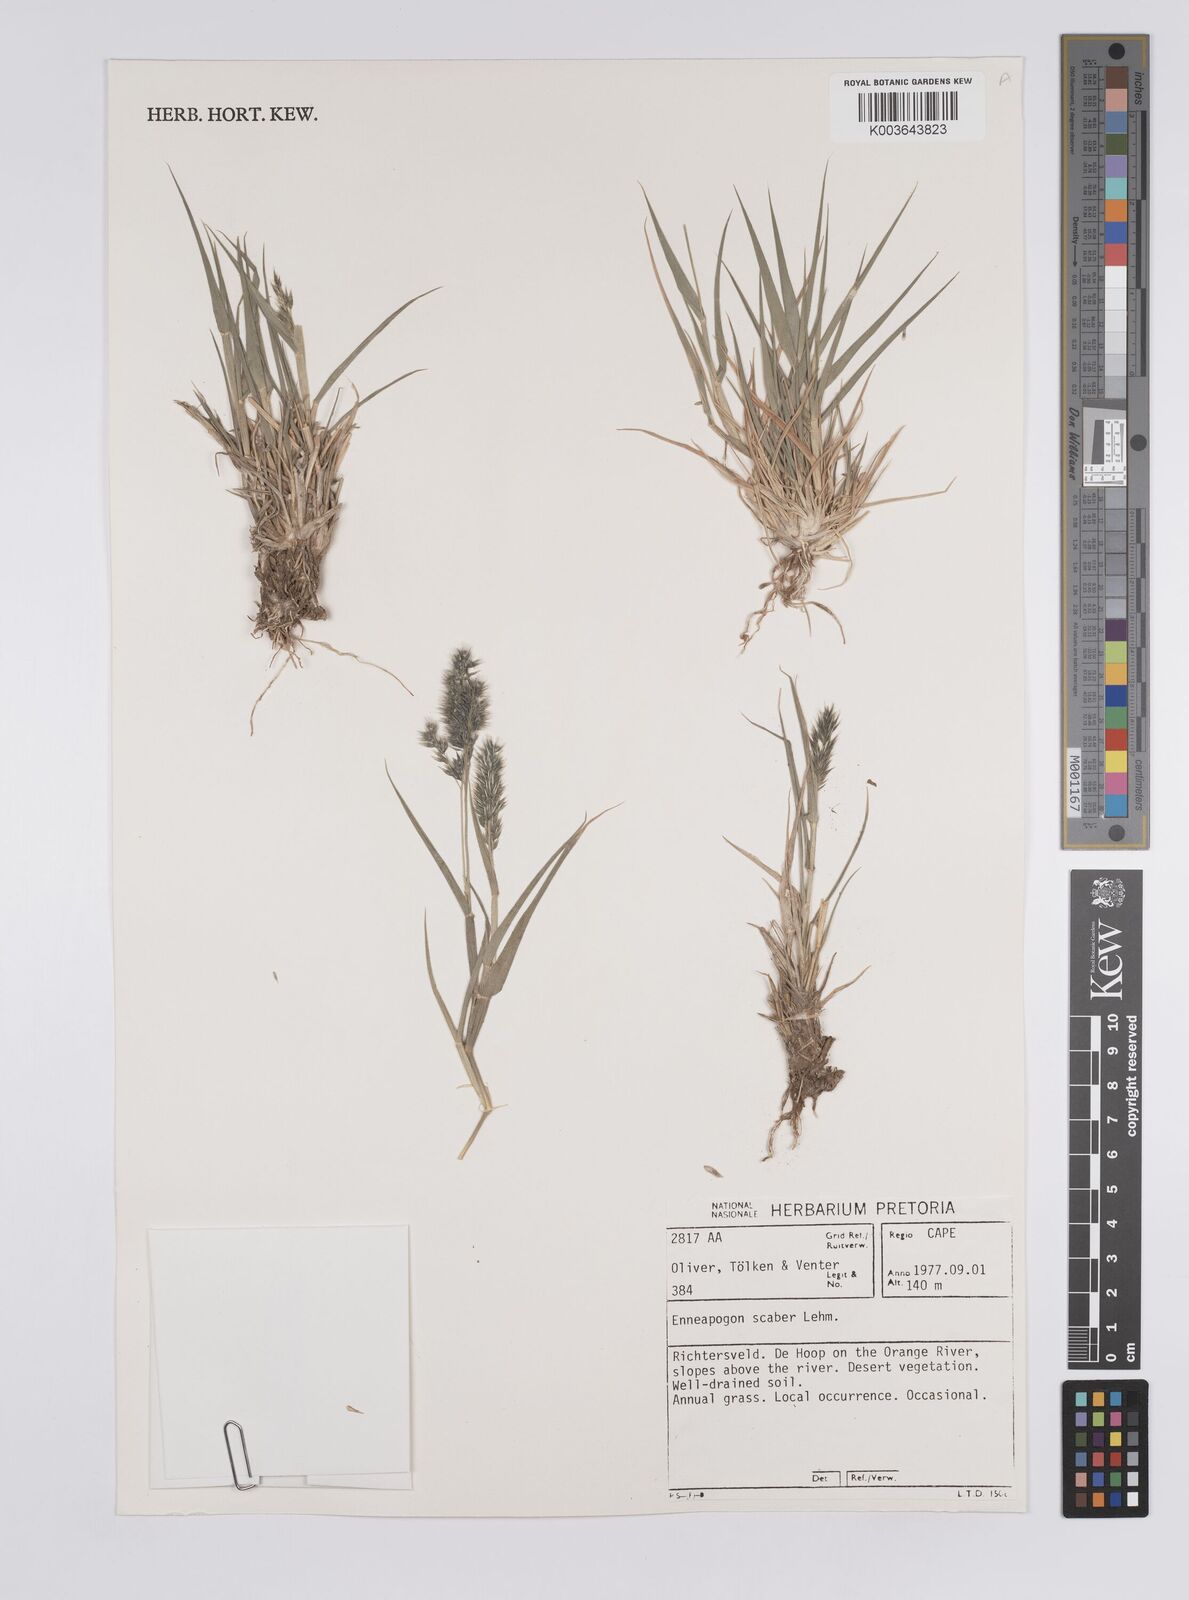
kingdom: Plantae
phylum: Tracheophyta
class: Liliopsida
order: Poales
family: Poaceae
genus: Enneapogon
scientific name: Enneapogon scaber
